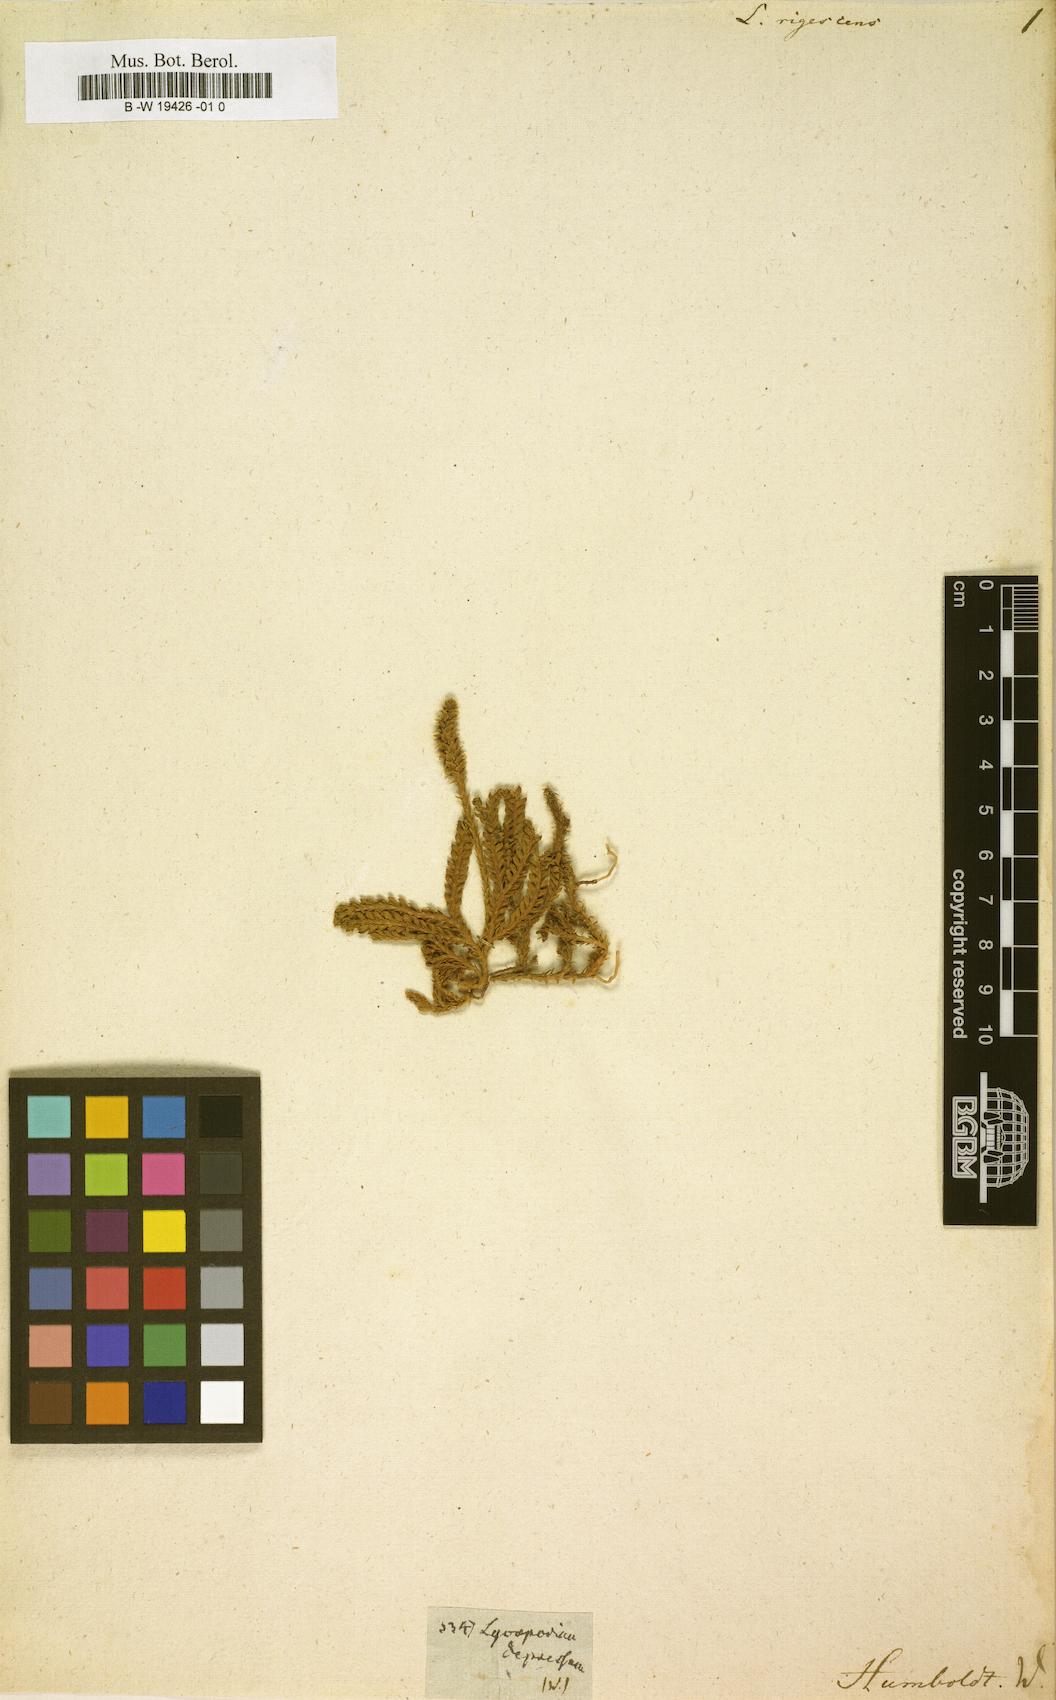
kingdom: Plantae
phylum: Tracheophyta
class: Lycopodiopsida
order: Lycopodiales
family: Lycopodiaceae
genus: Lycopodium
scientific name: Lycopodium
